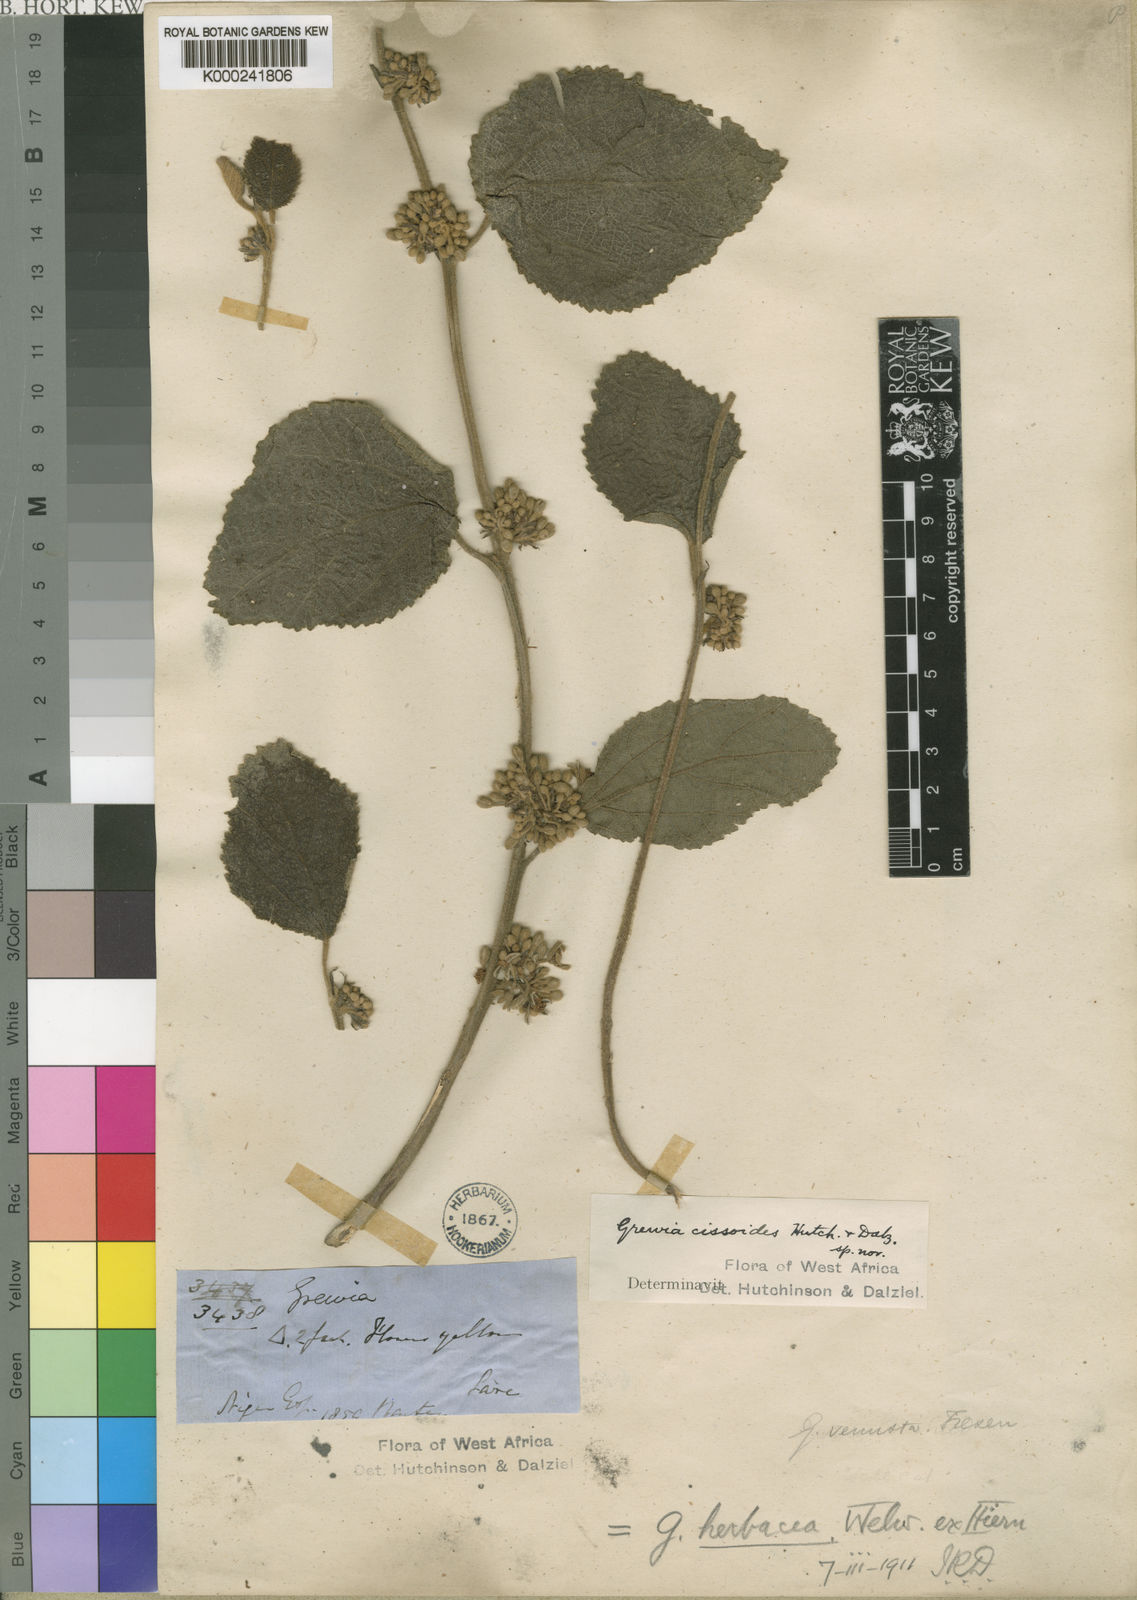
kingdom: Plantae
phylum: Tracheophyta
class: Magnoliopsida
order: Malvales
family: Malvaceae
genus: Grewia
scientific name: Grewia cissoides
